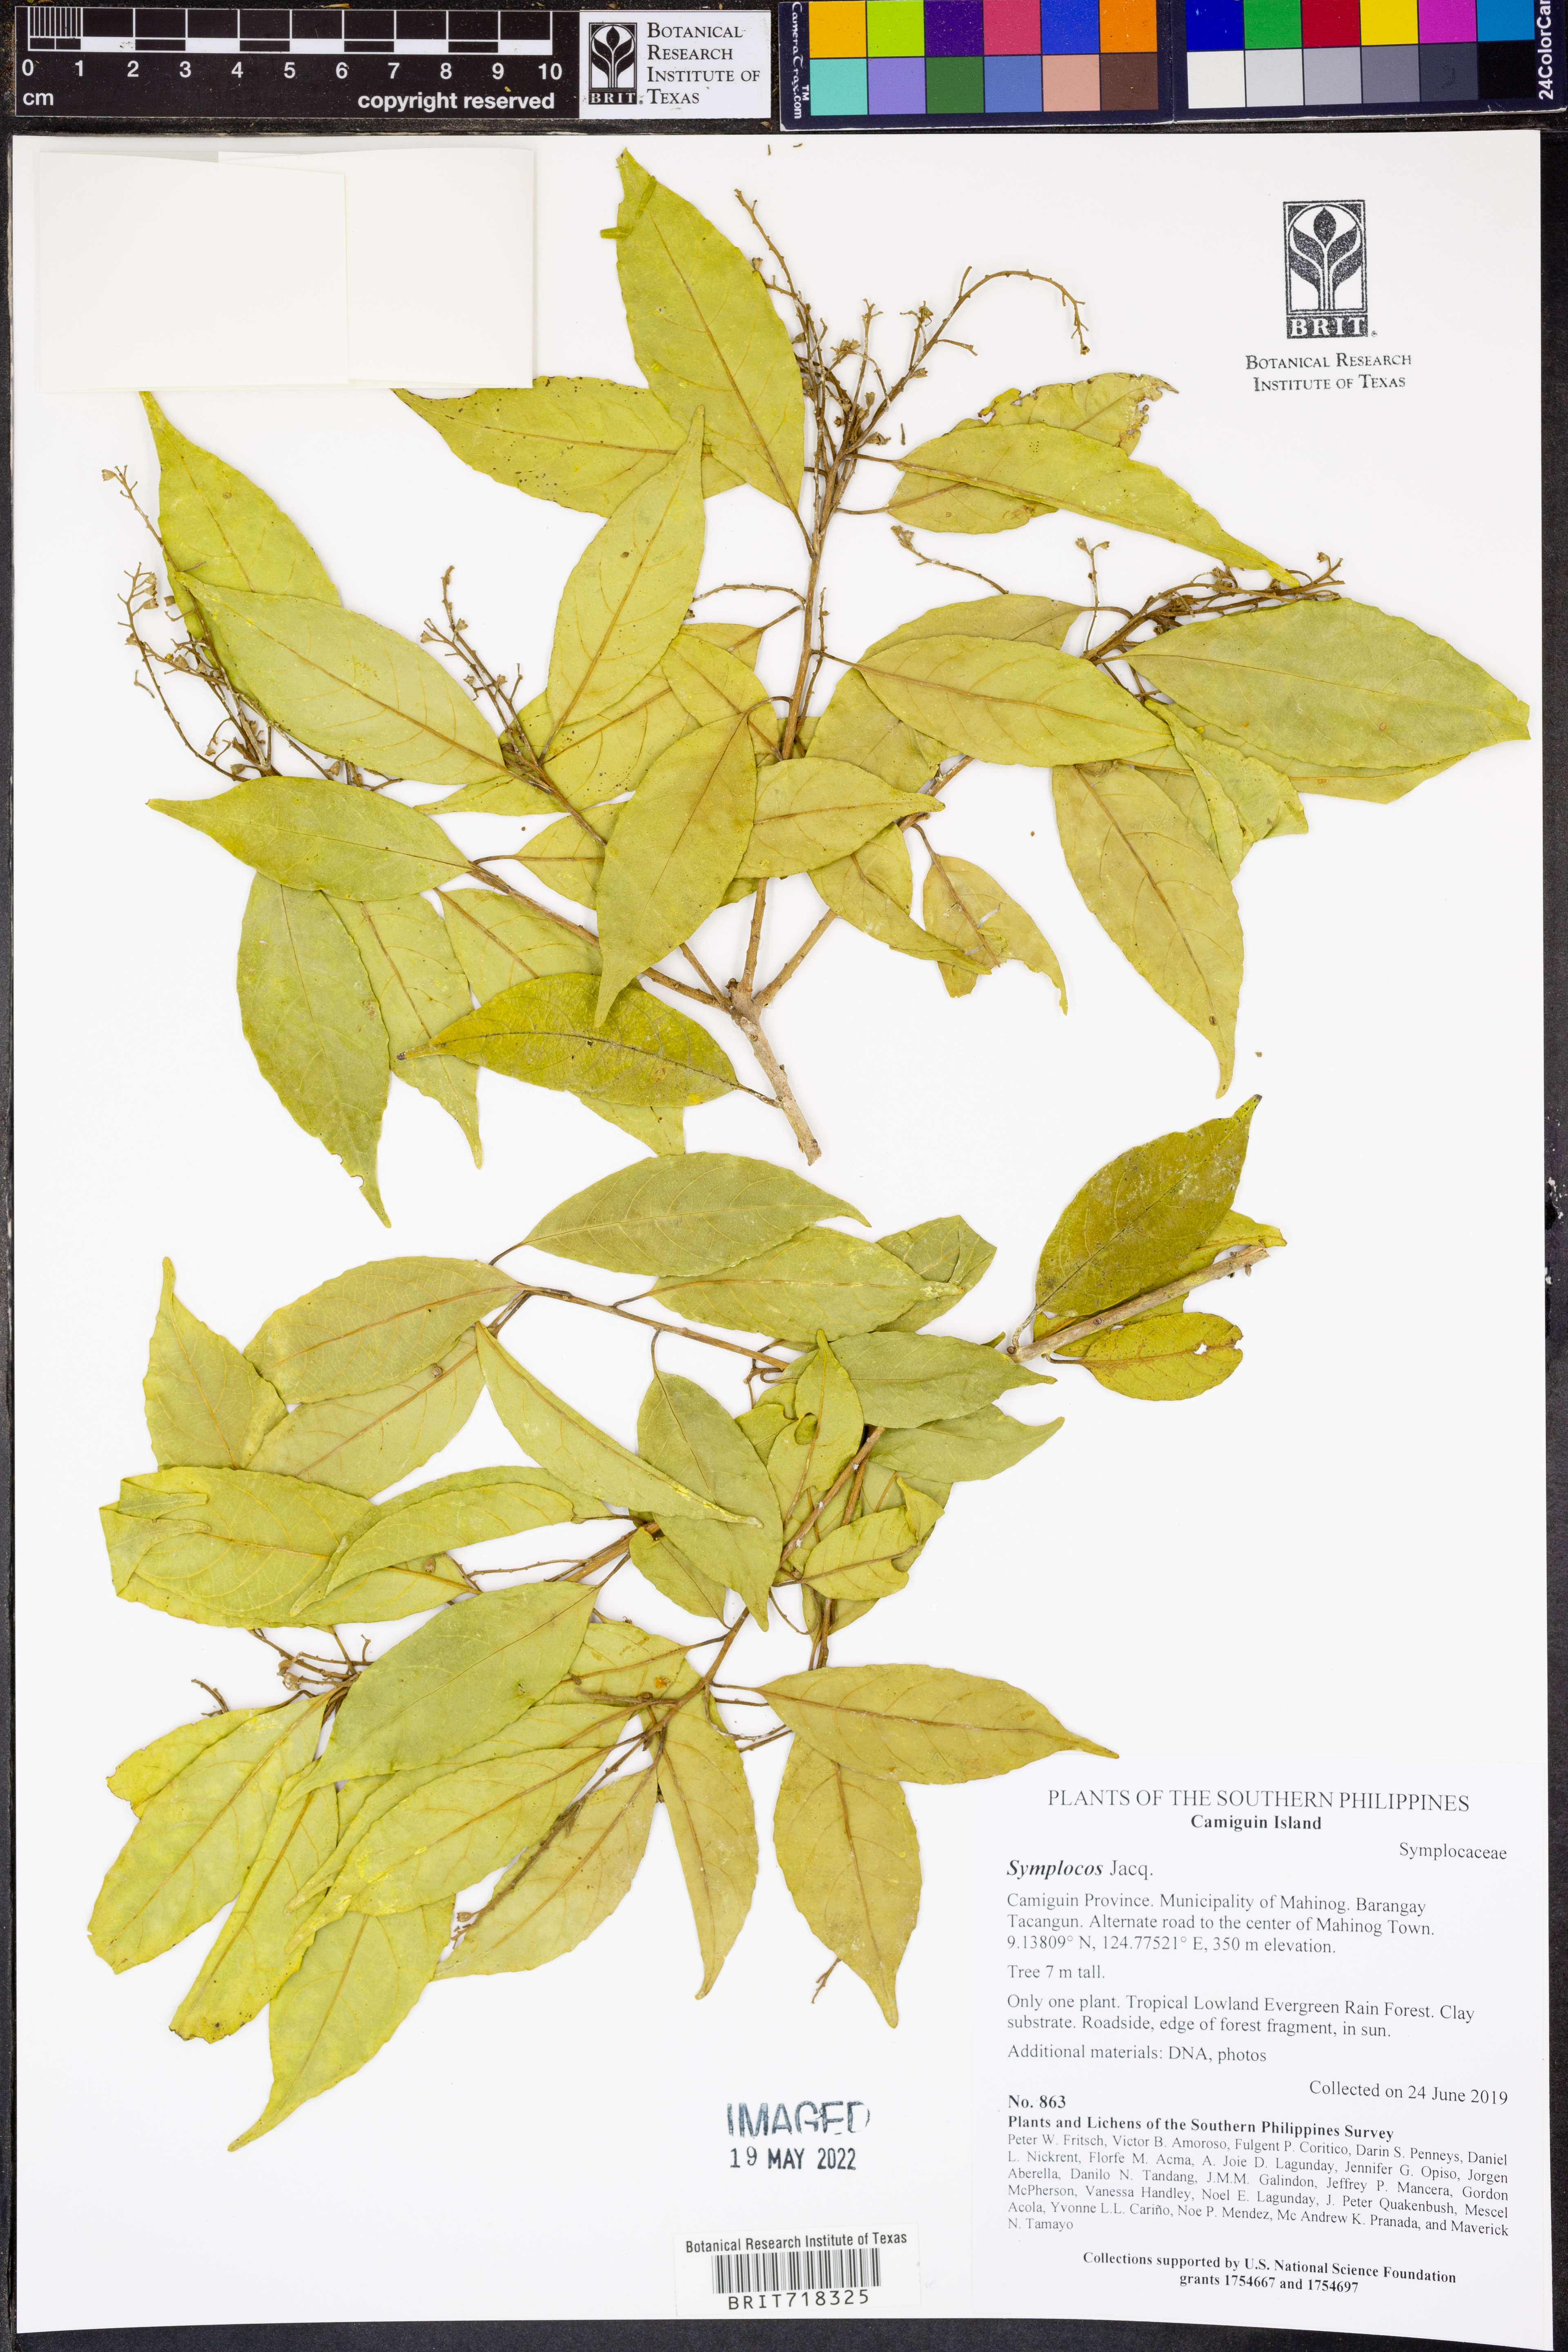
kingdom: Plantae
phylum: Tracheophyta
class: Magnoliopsida
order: Ericales
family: Symplocaceae
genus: Symplocos
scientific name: Symplocos
